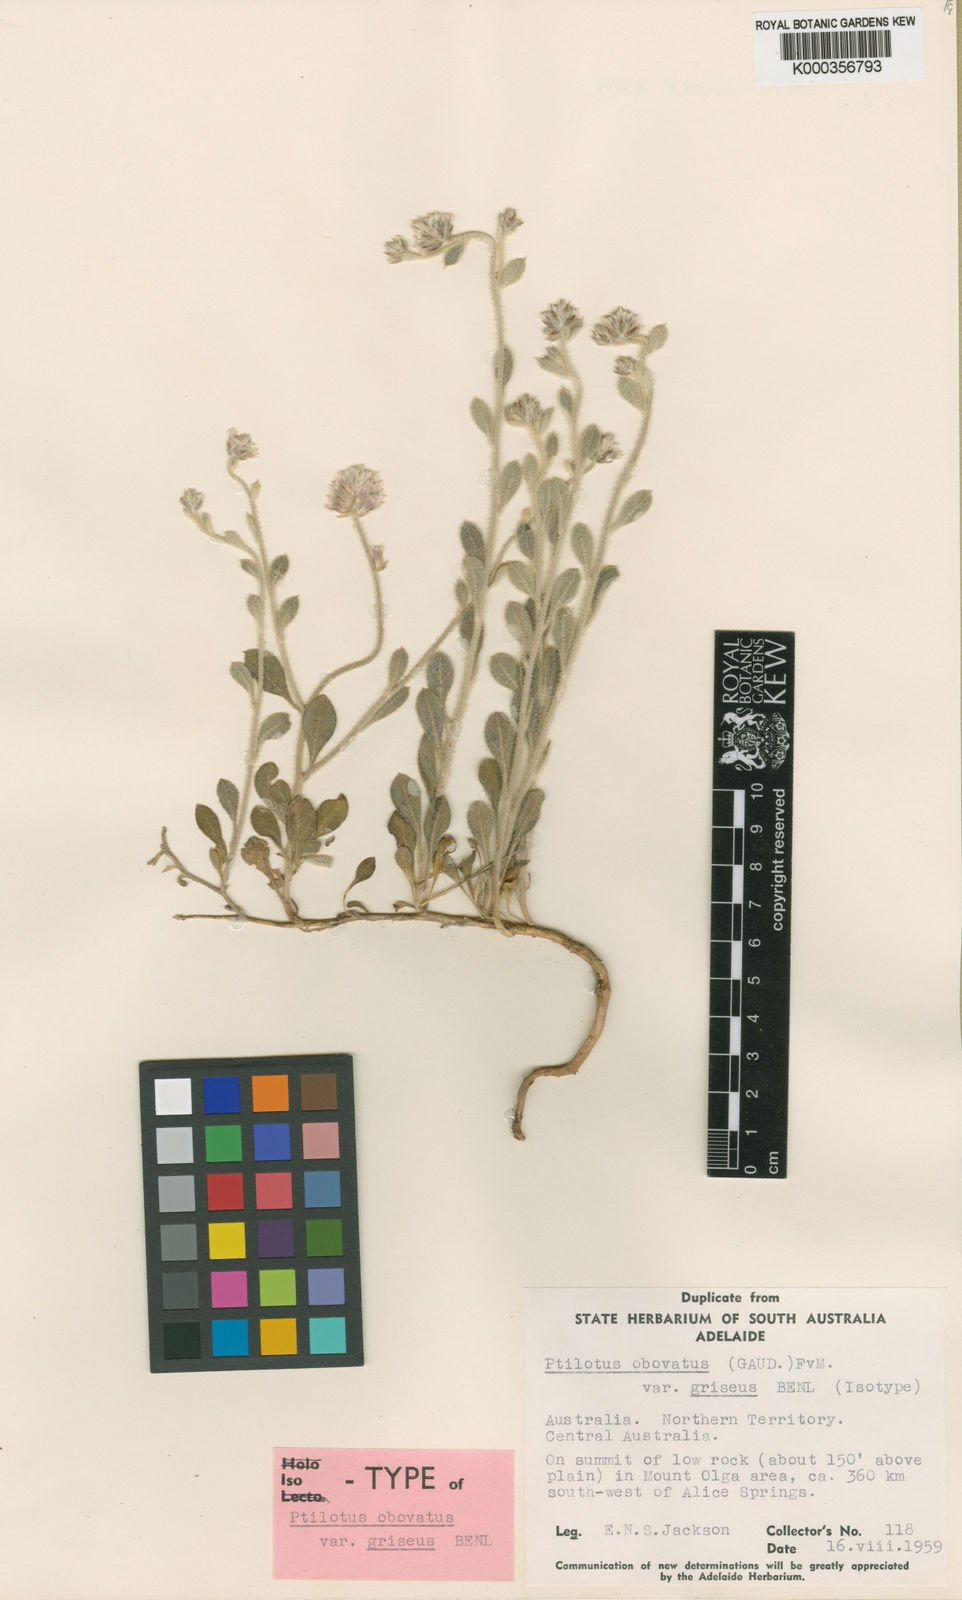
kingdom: Plantae
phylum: Tracheophyta
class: Magnoliopsida
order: Caryophyllales
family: Amaranthaceae
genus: Ptilotus
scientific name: Ptilotus obovatus
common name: Cottonbush
